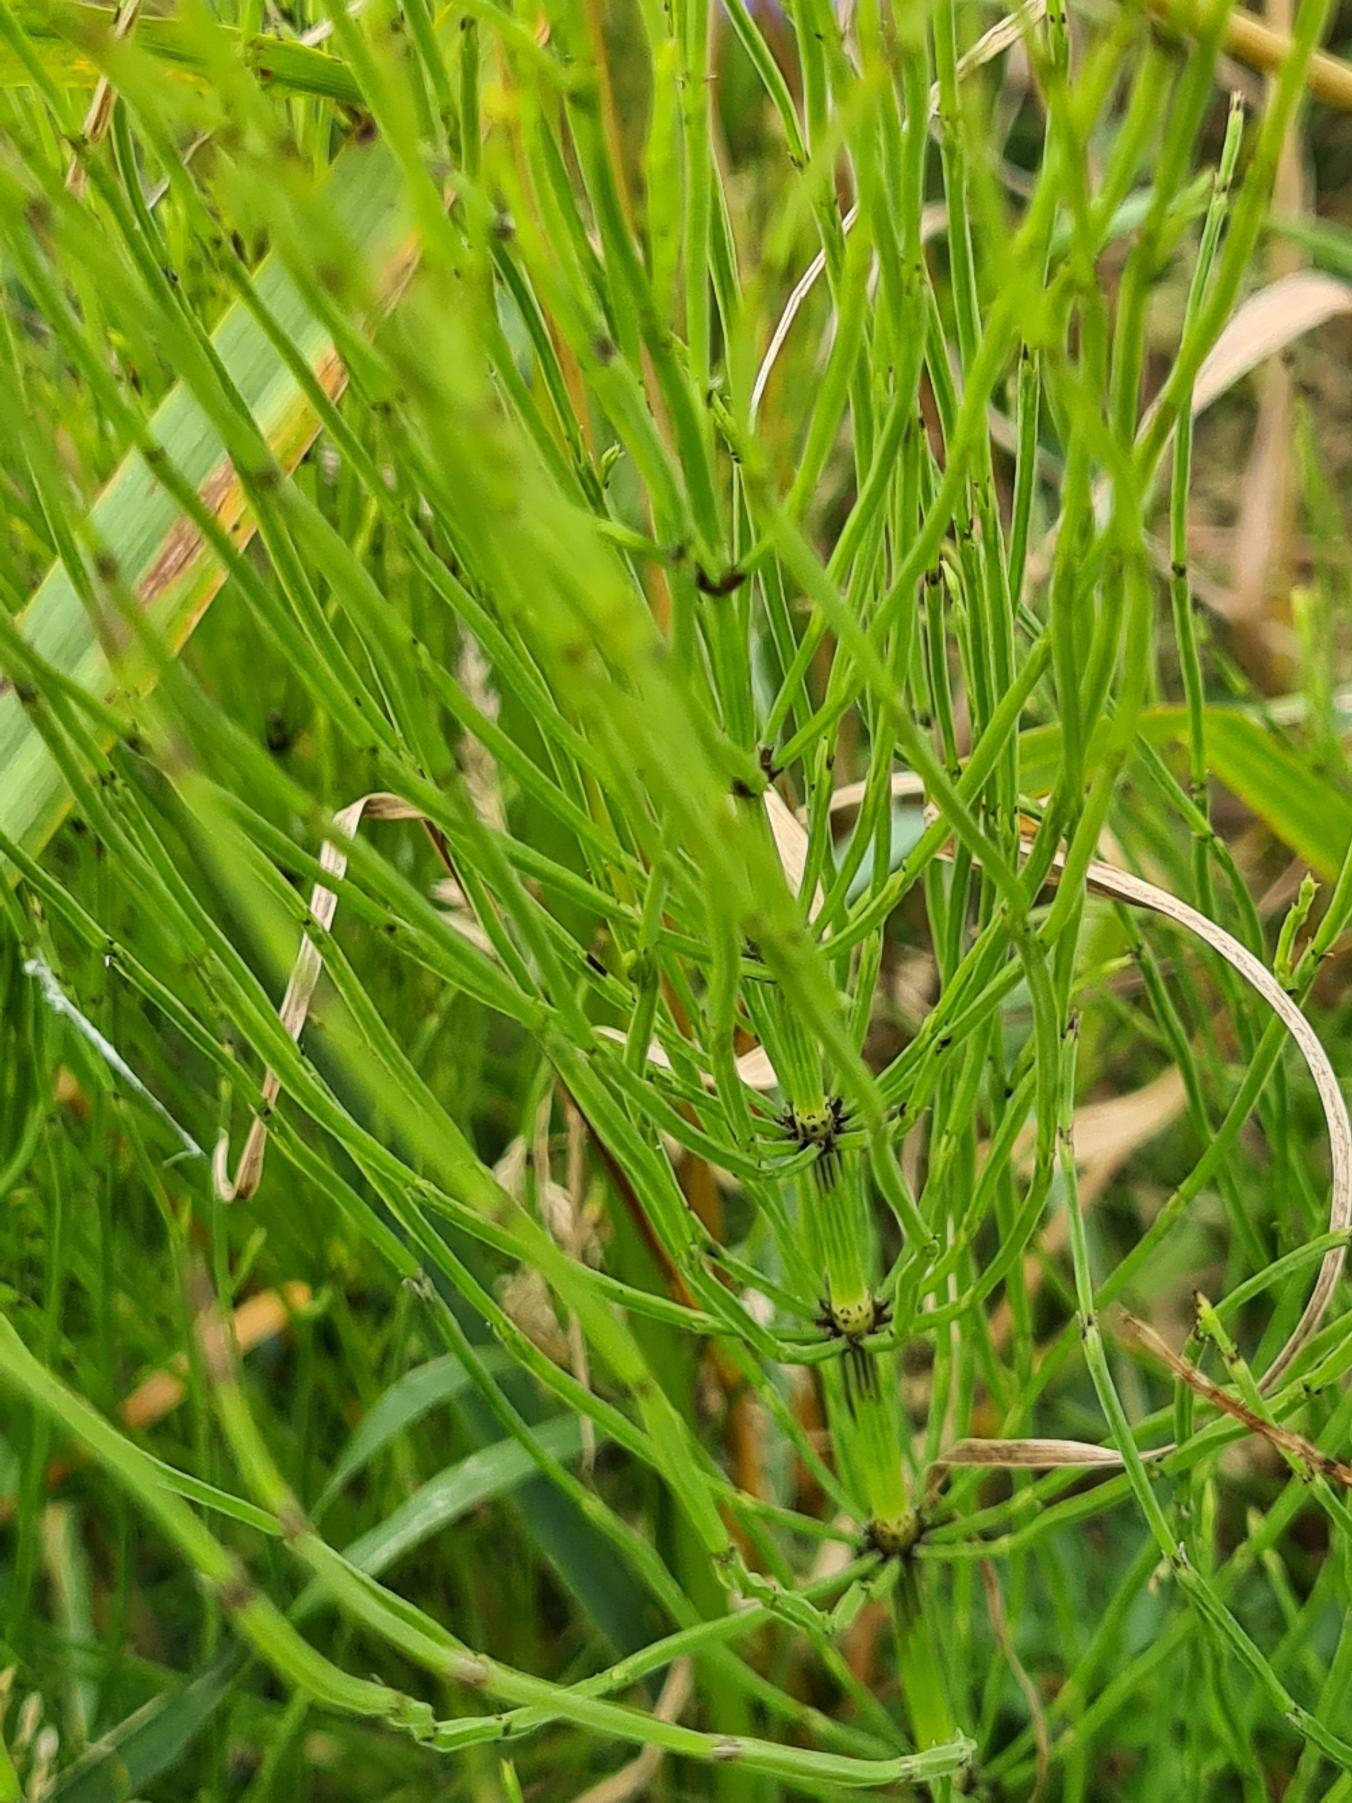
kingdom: Plantae
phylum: Tracheophyta
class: Polypodiopsida
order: Equisetales
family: Equisetaceae
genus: Equisetum
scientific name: Equisetum arvense
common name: Ager-padderok
